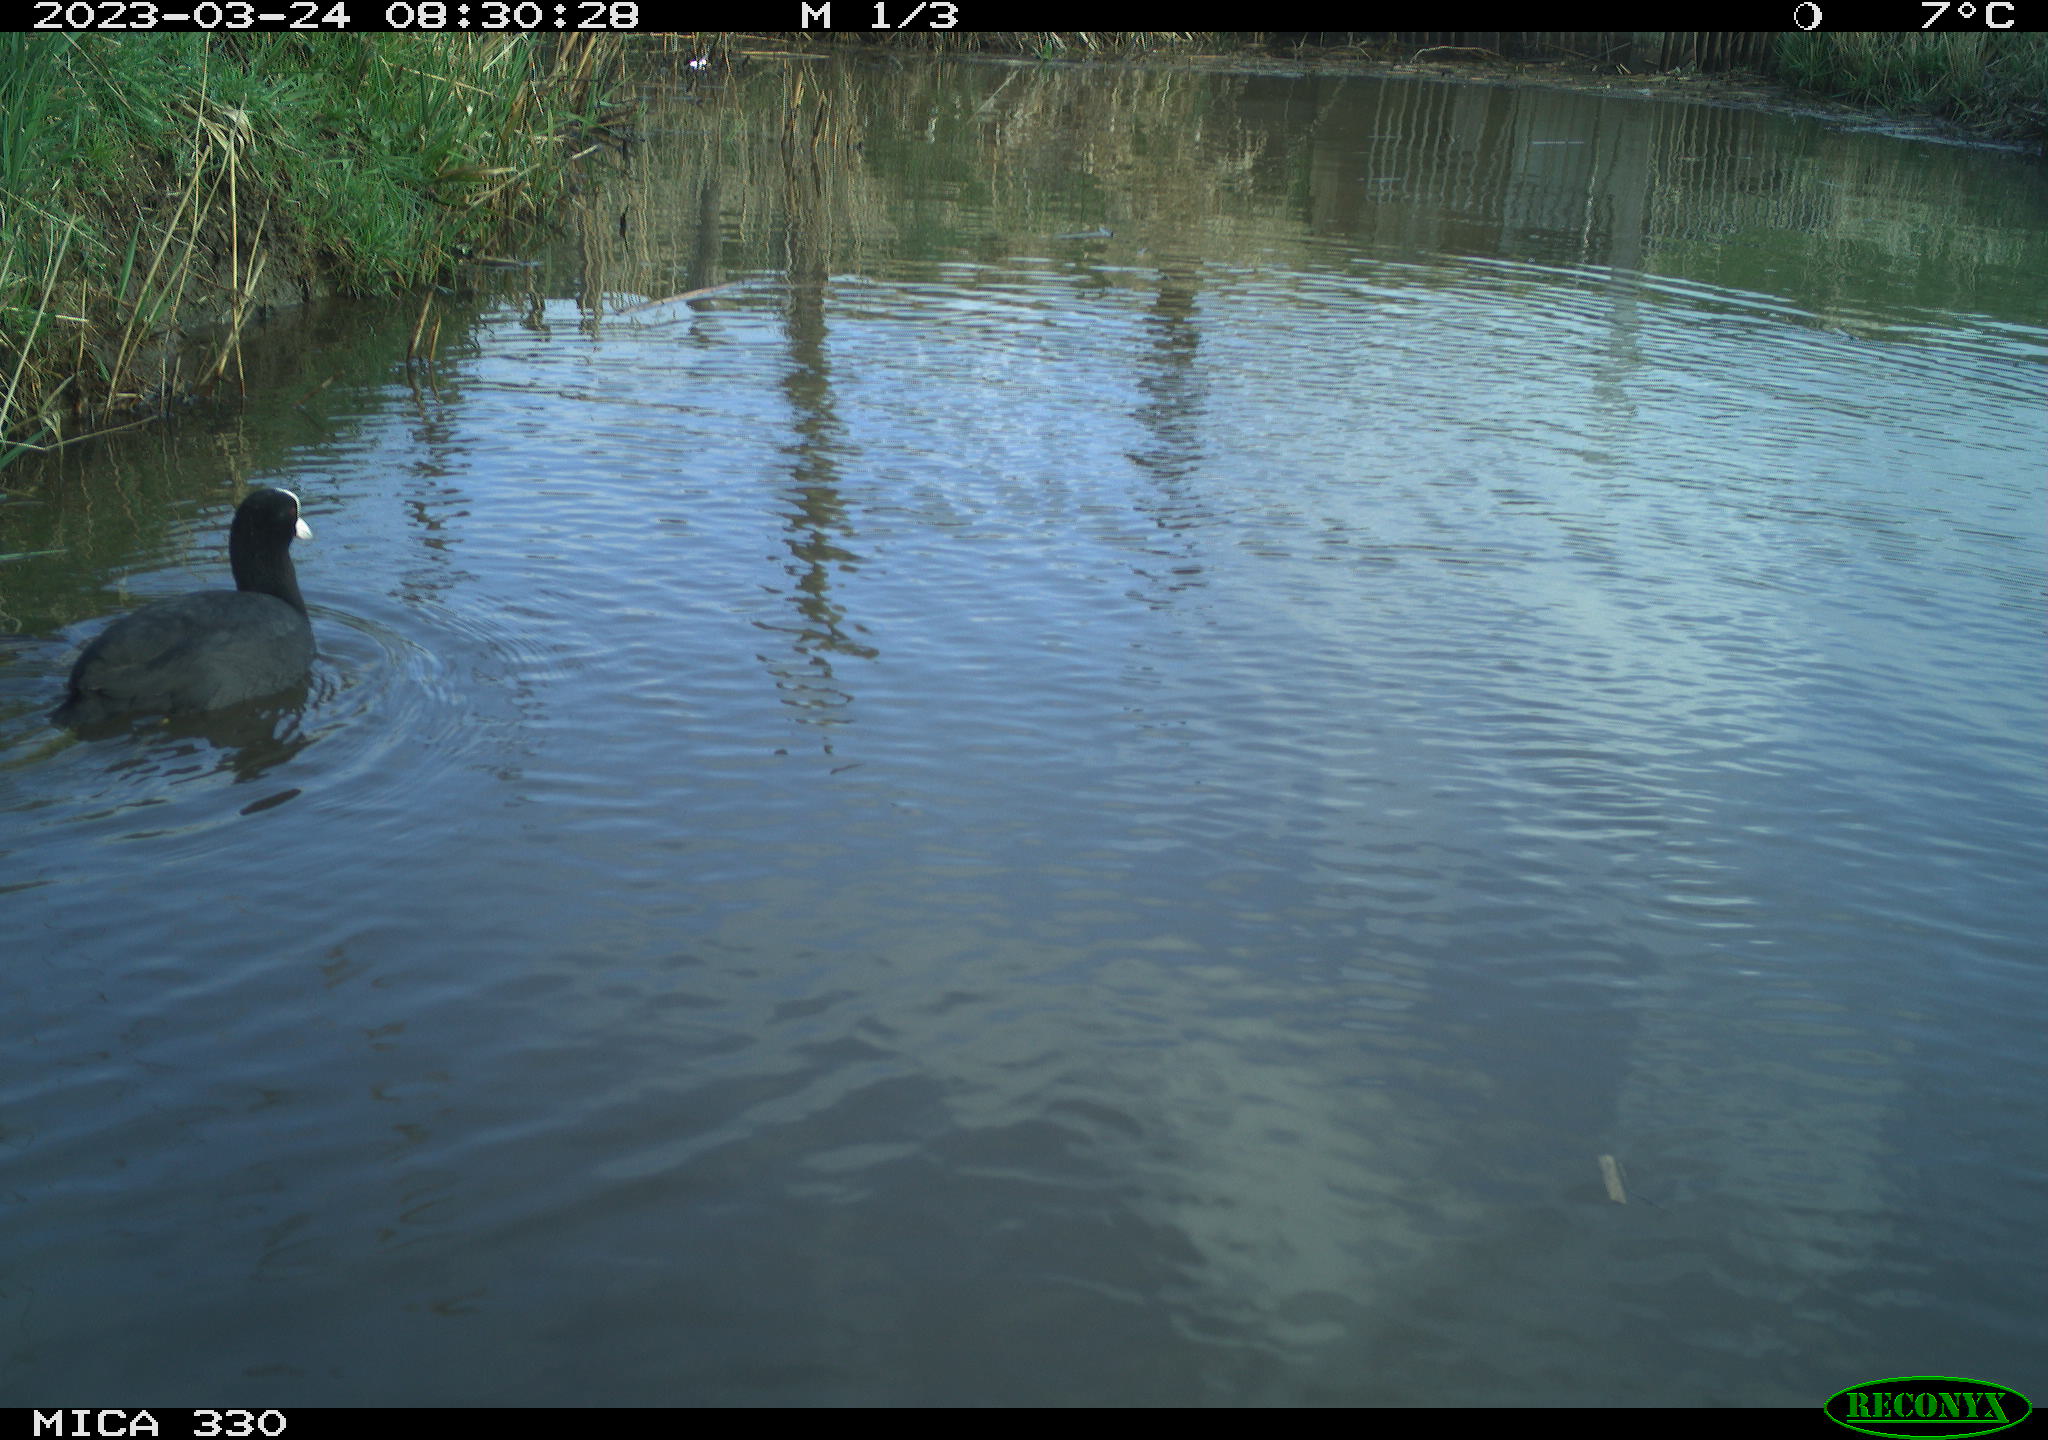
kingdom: Animalia
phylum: Chordata
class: Aves
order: Gruiformes
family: Rallidae
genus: Fulica
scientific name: Fulica atra
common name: Eurasian coot
